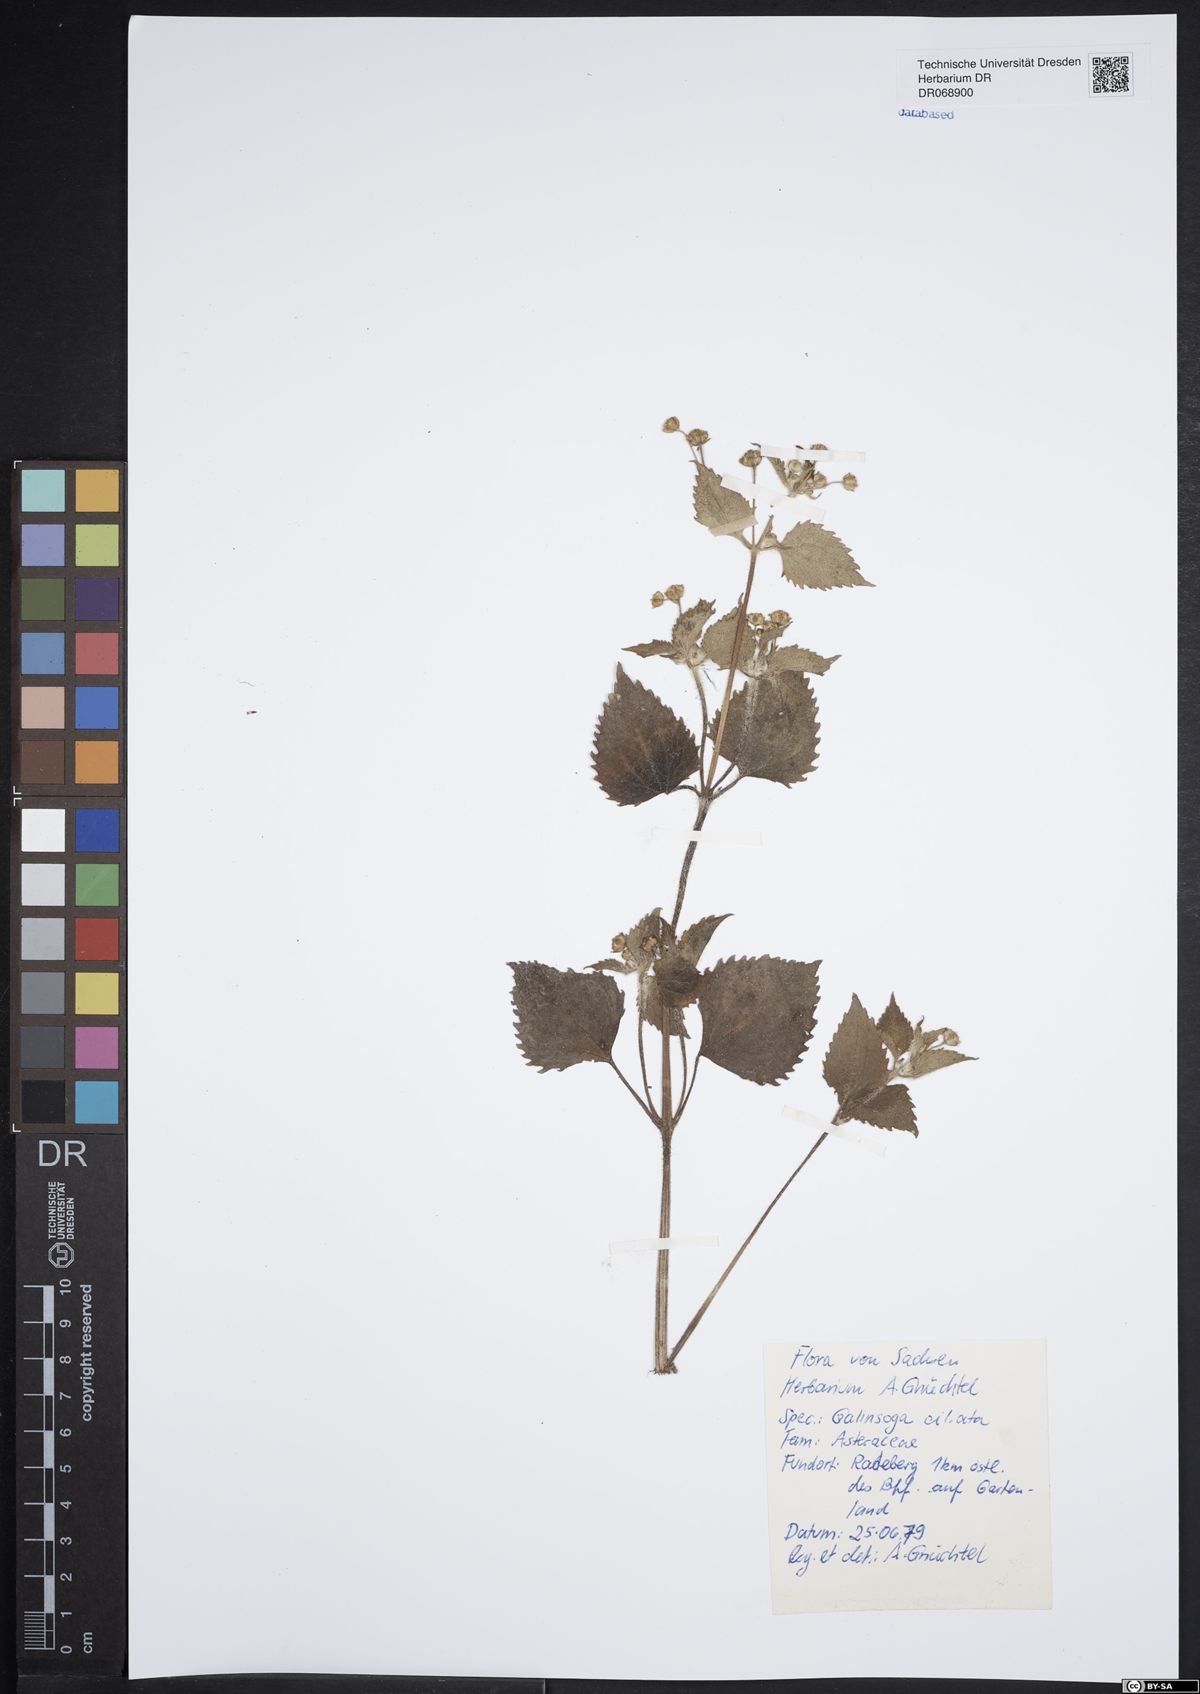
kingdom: Plantae
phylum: Tracheophyta
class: Magnoliopsida
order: Asterales
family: Asteraceae
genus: Galinsoga
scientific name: Galinsoga quadriradiata
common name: Shaggy soldier
